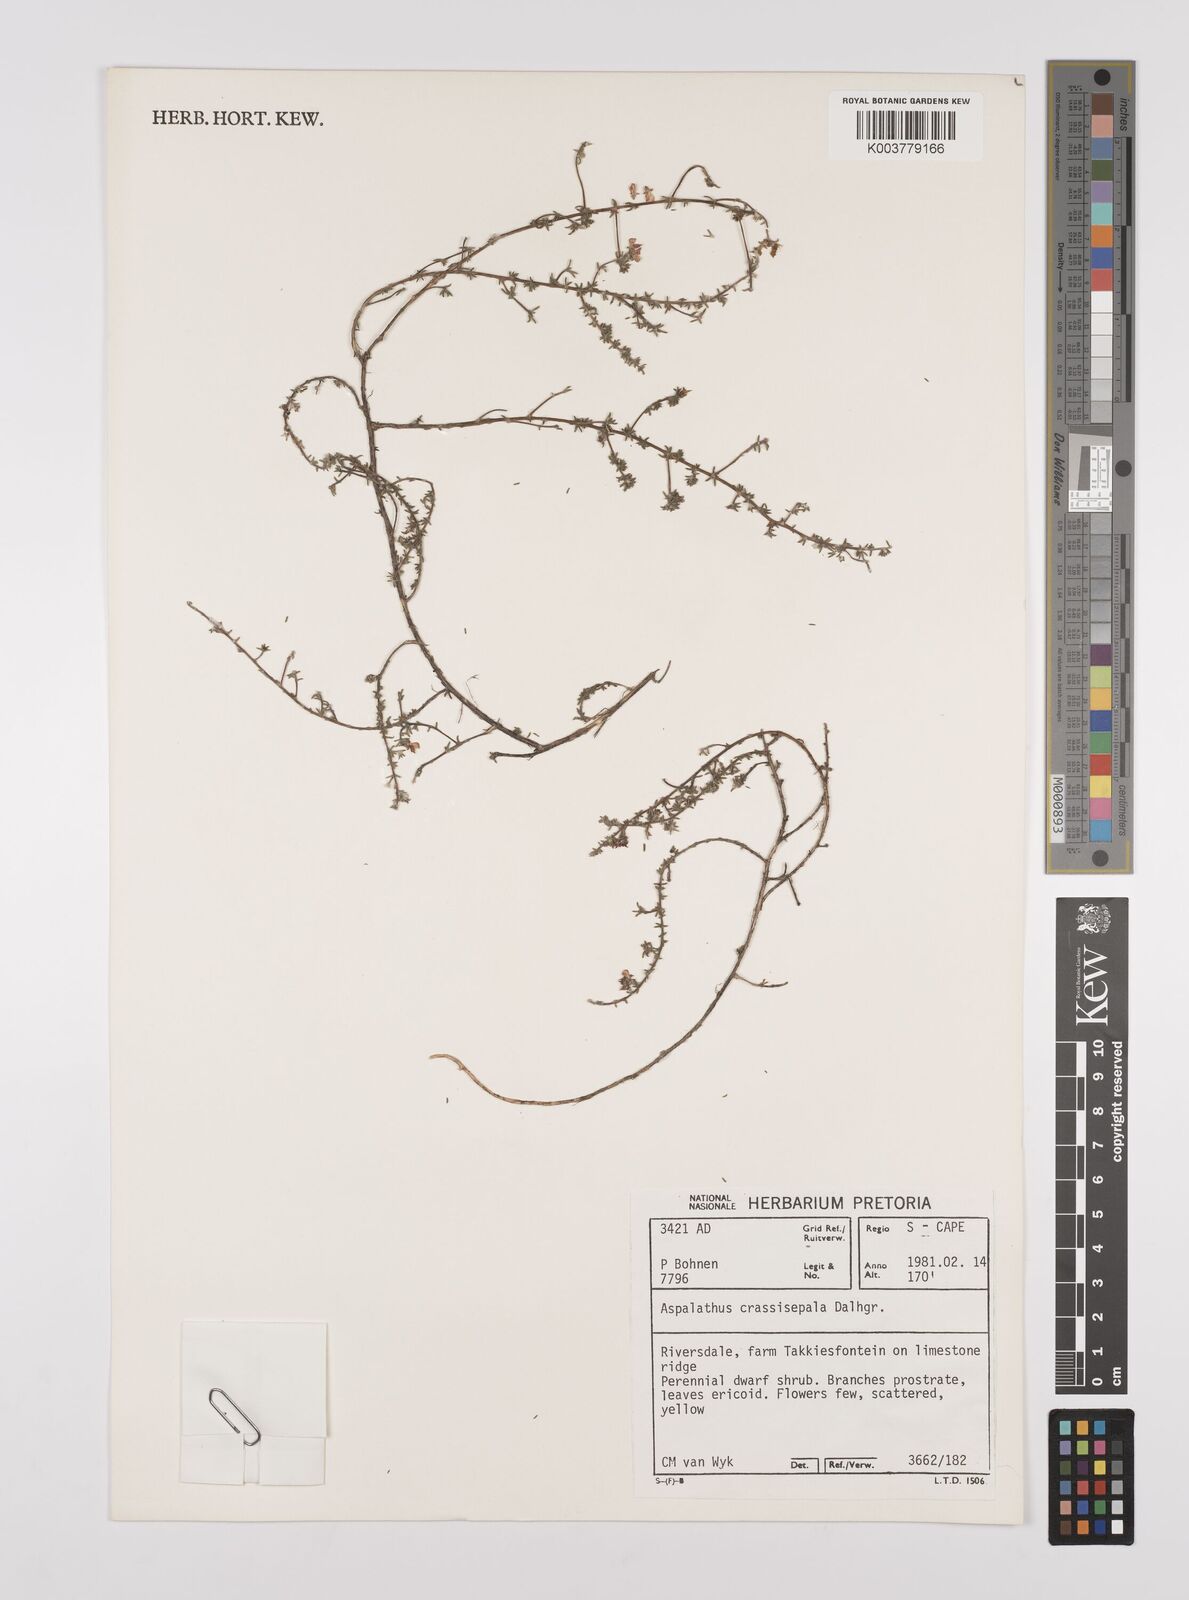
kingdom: Plantae
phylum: Tracheophyta
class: Magnoliopsida
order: Fabales
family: Fabaceae
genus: Aspalathus
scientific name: Aspalathus crassisepala
